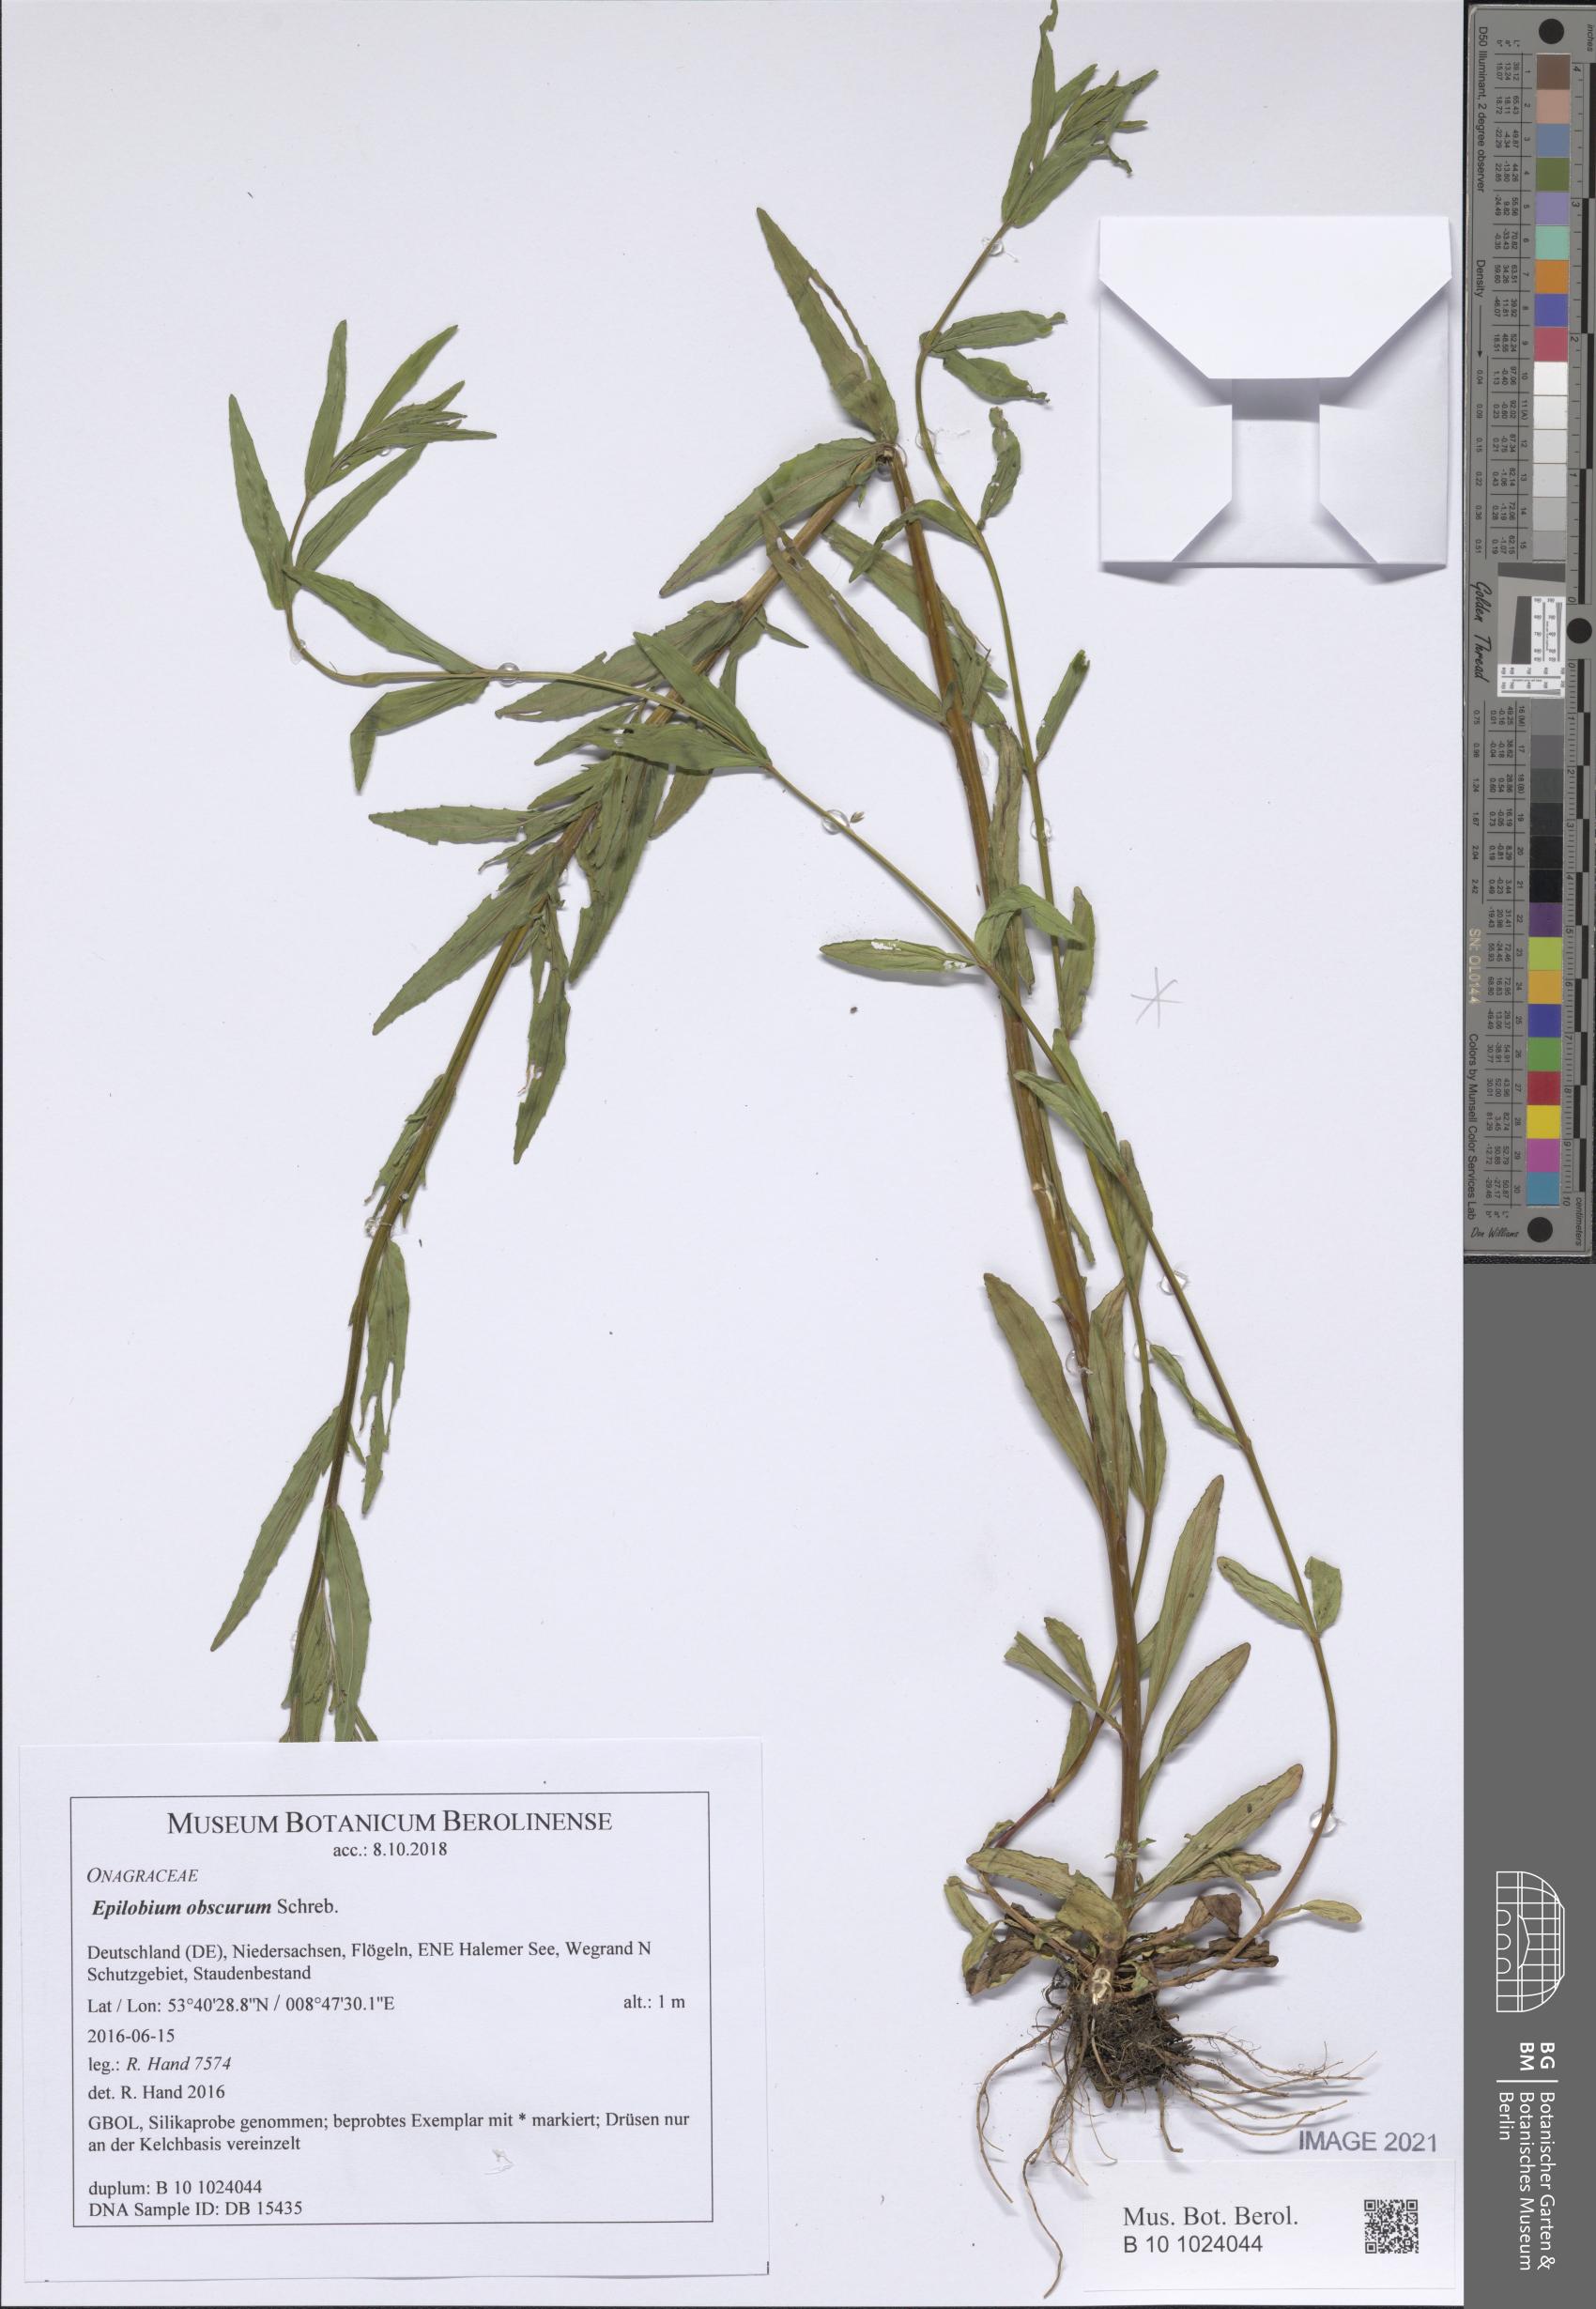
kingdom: Plantae
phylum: Tracheophyta
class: Magnoliopsida
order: Myrtales
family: Onagraceae
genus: Epilobium
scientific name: Epilobium obscurum
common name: Short-fruited willowherb
